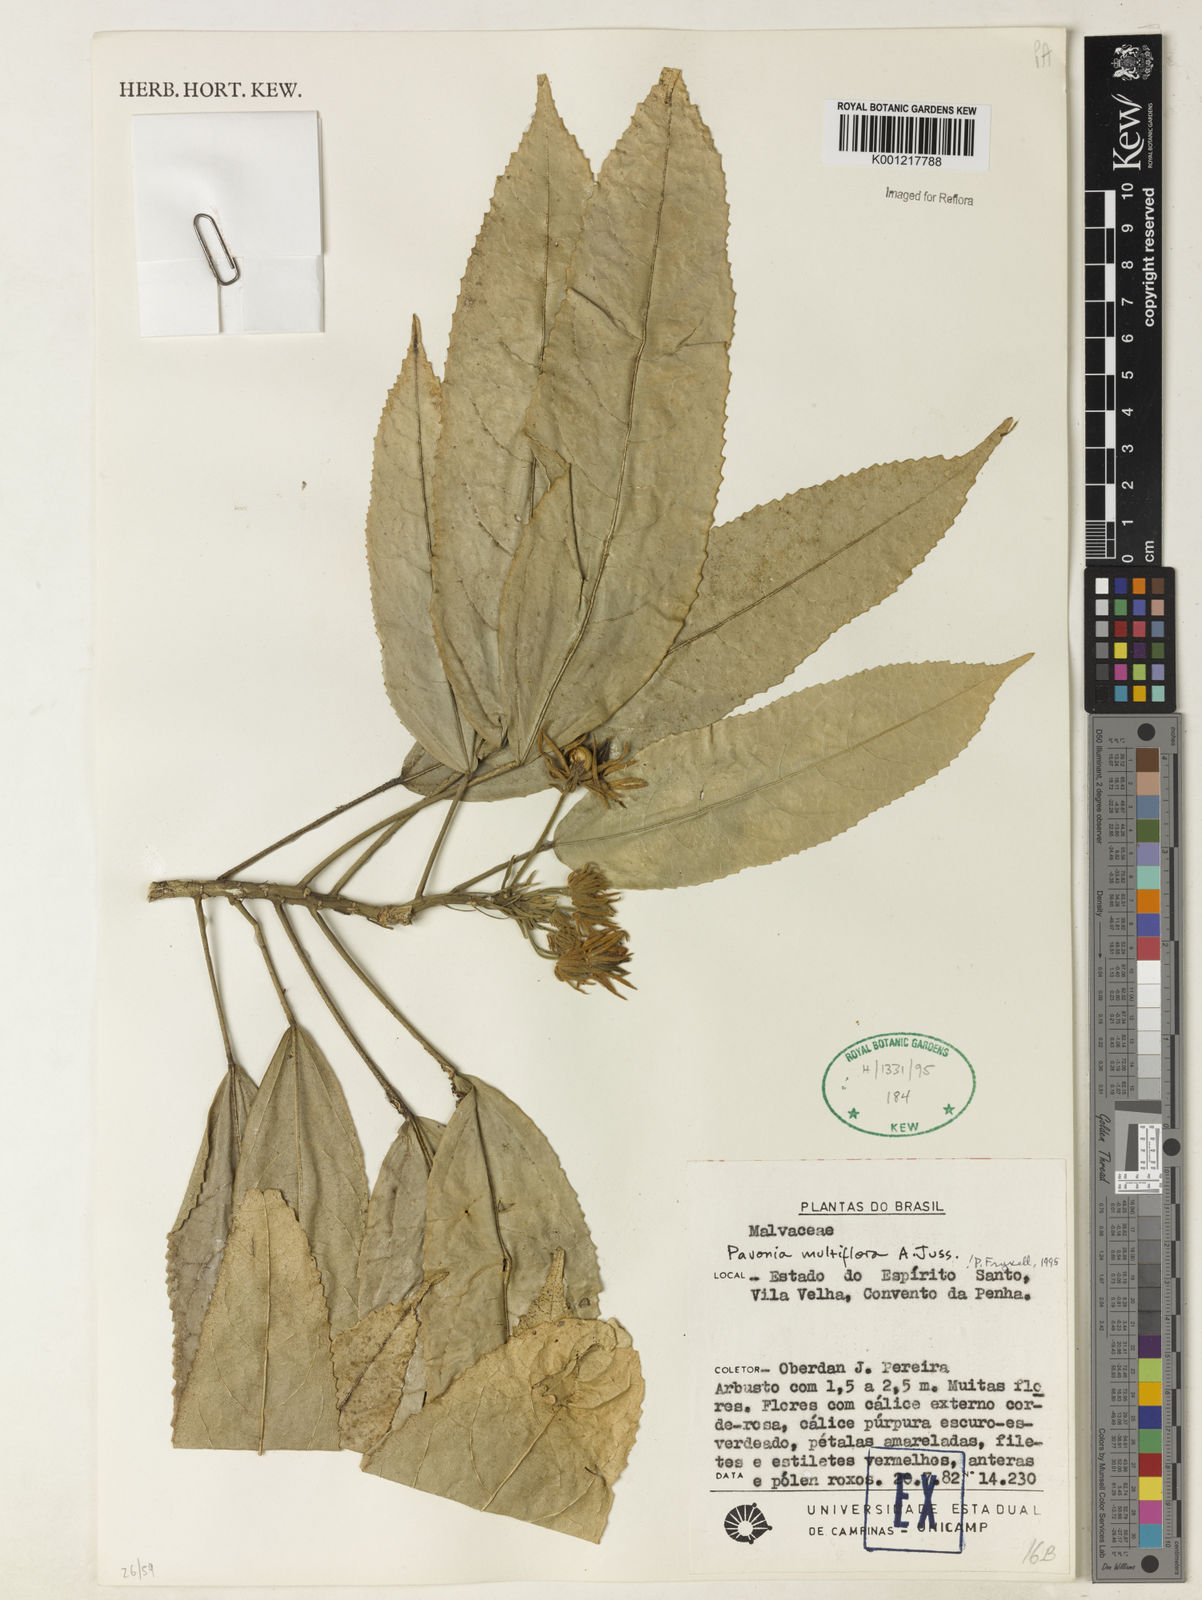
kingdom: Plantae
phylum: Tracheophyta
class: Magnoliopsida
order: Malvales
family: Malvaceae
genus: Pavonia
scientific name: Pavonia multiflora
